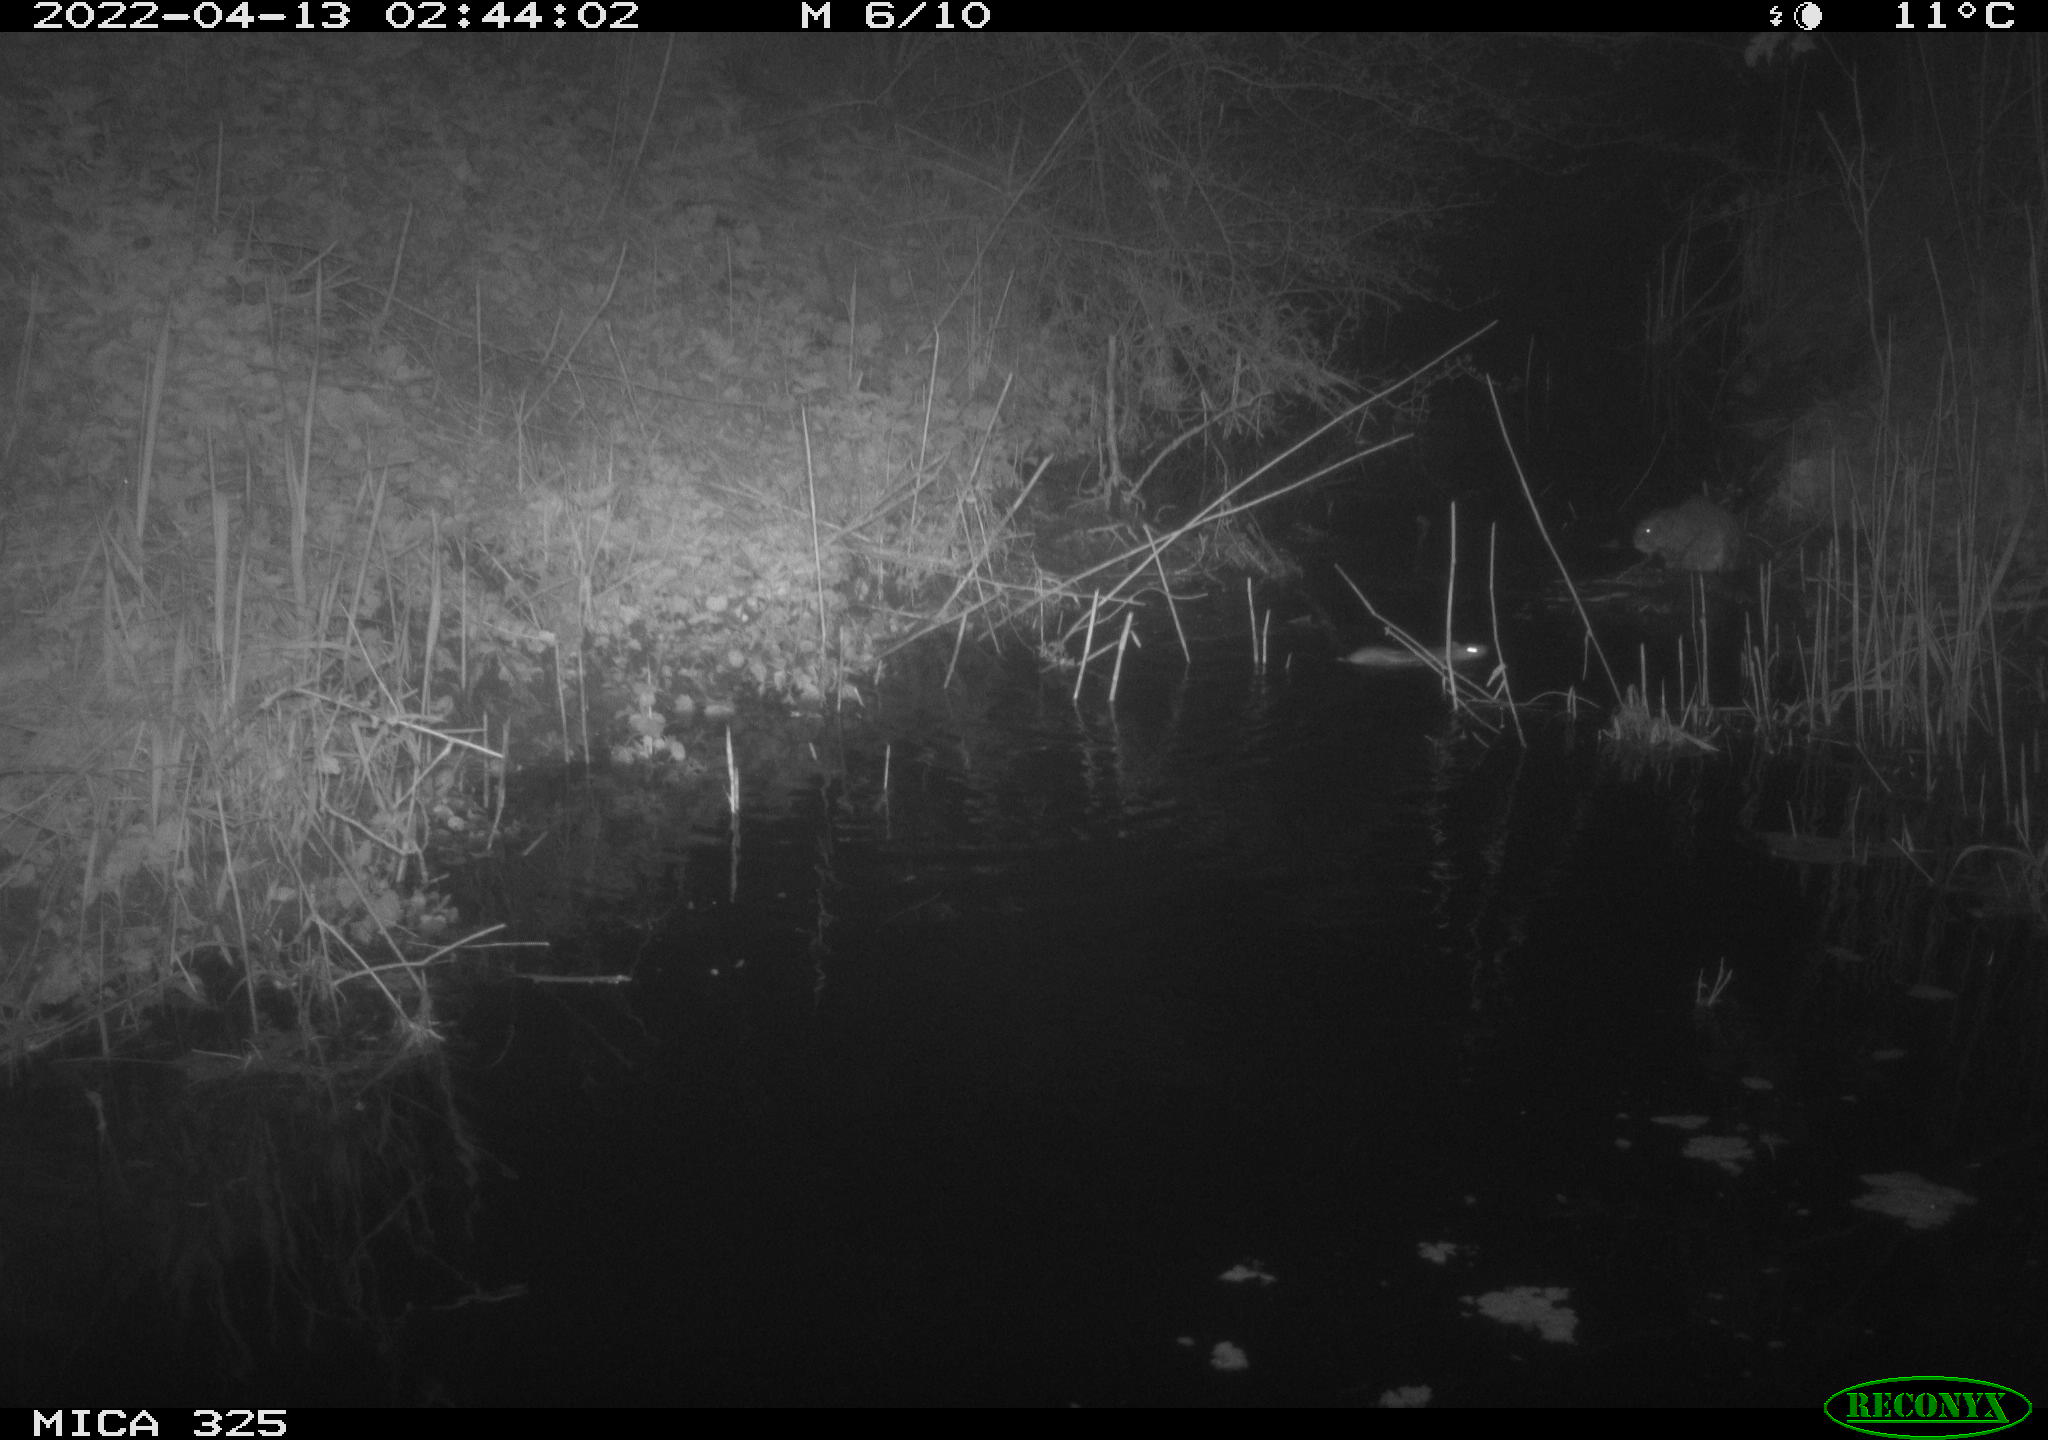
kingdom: Animalia
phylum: Chordata
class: Mammalia
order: Rodentia
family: Cricetidae
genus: Ondatra
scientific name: Ondatra zibethicus
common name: Muskrat
